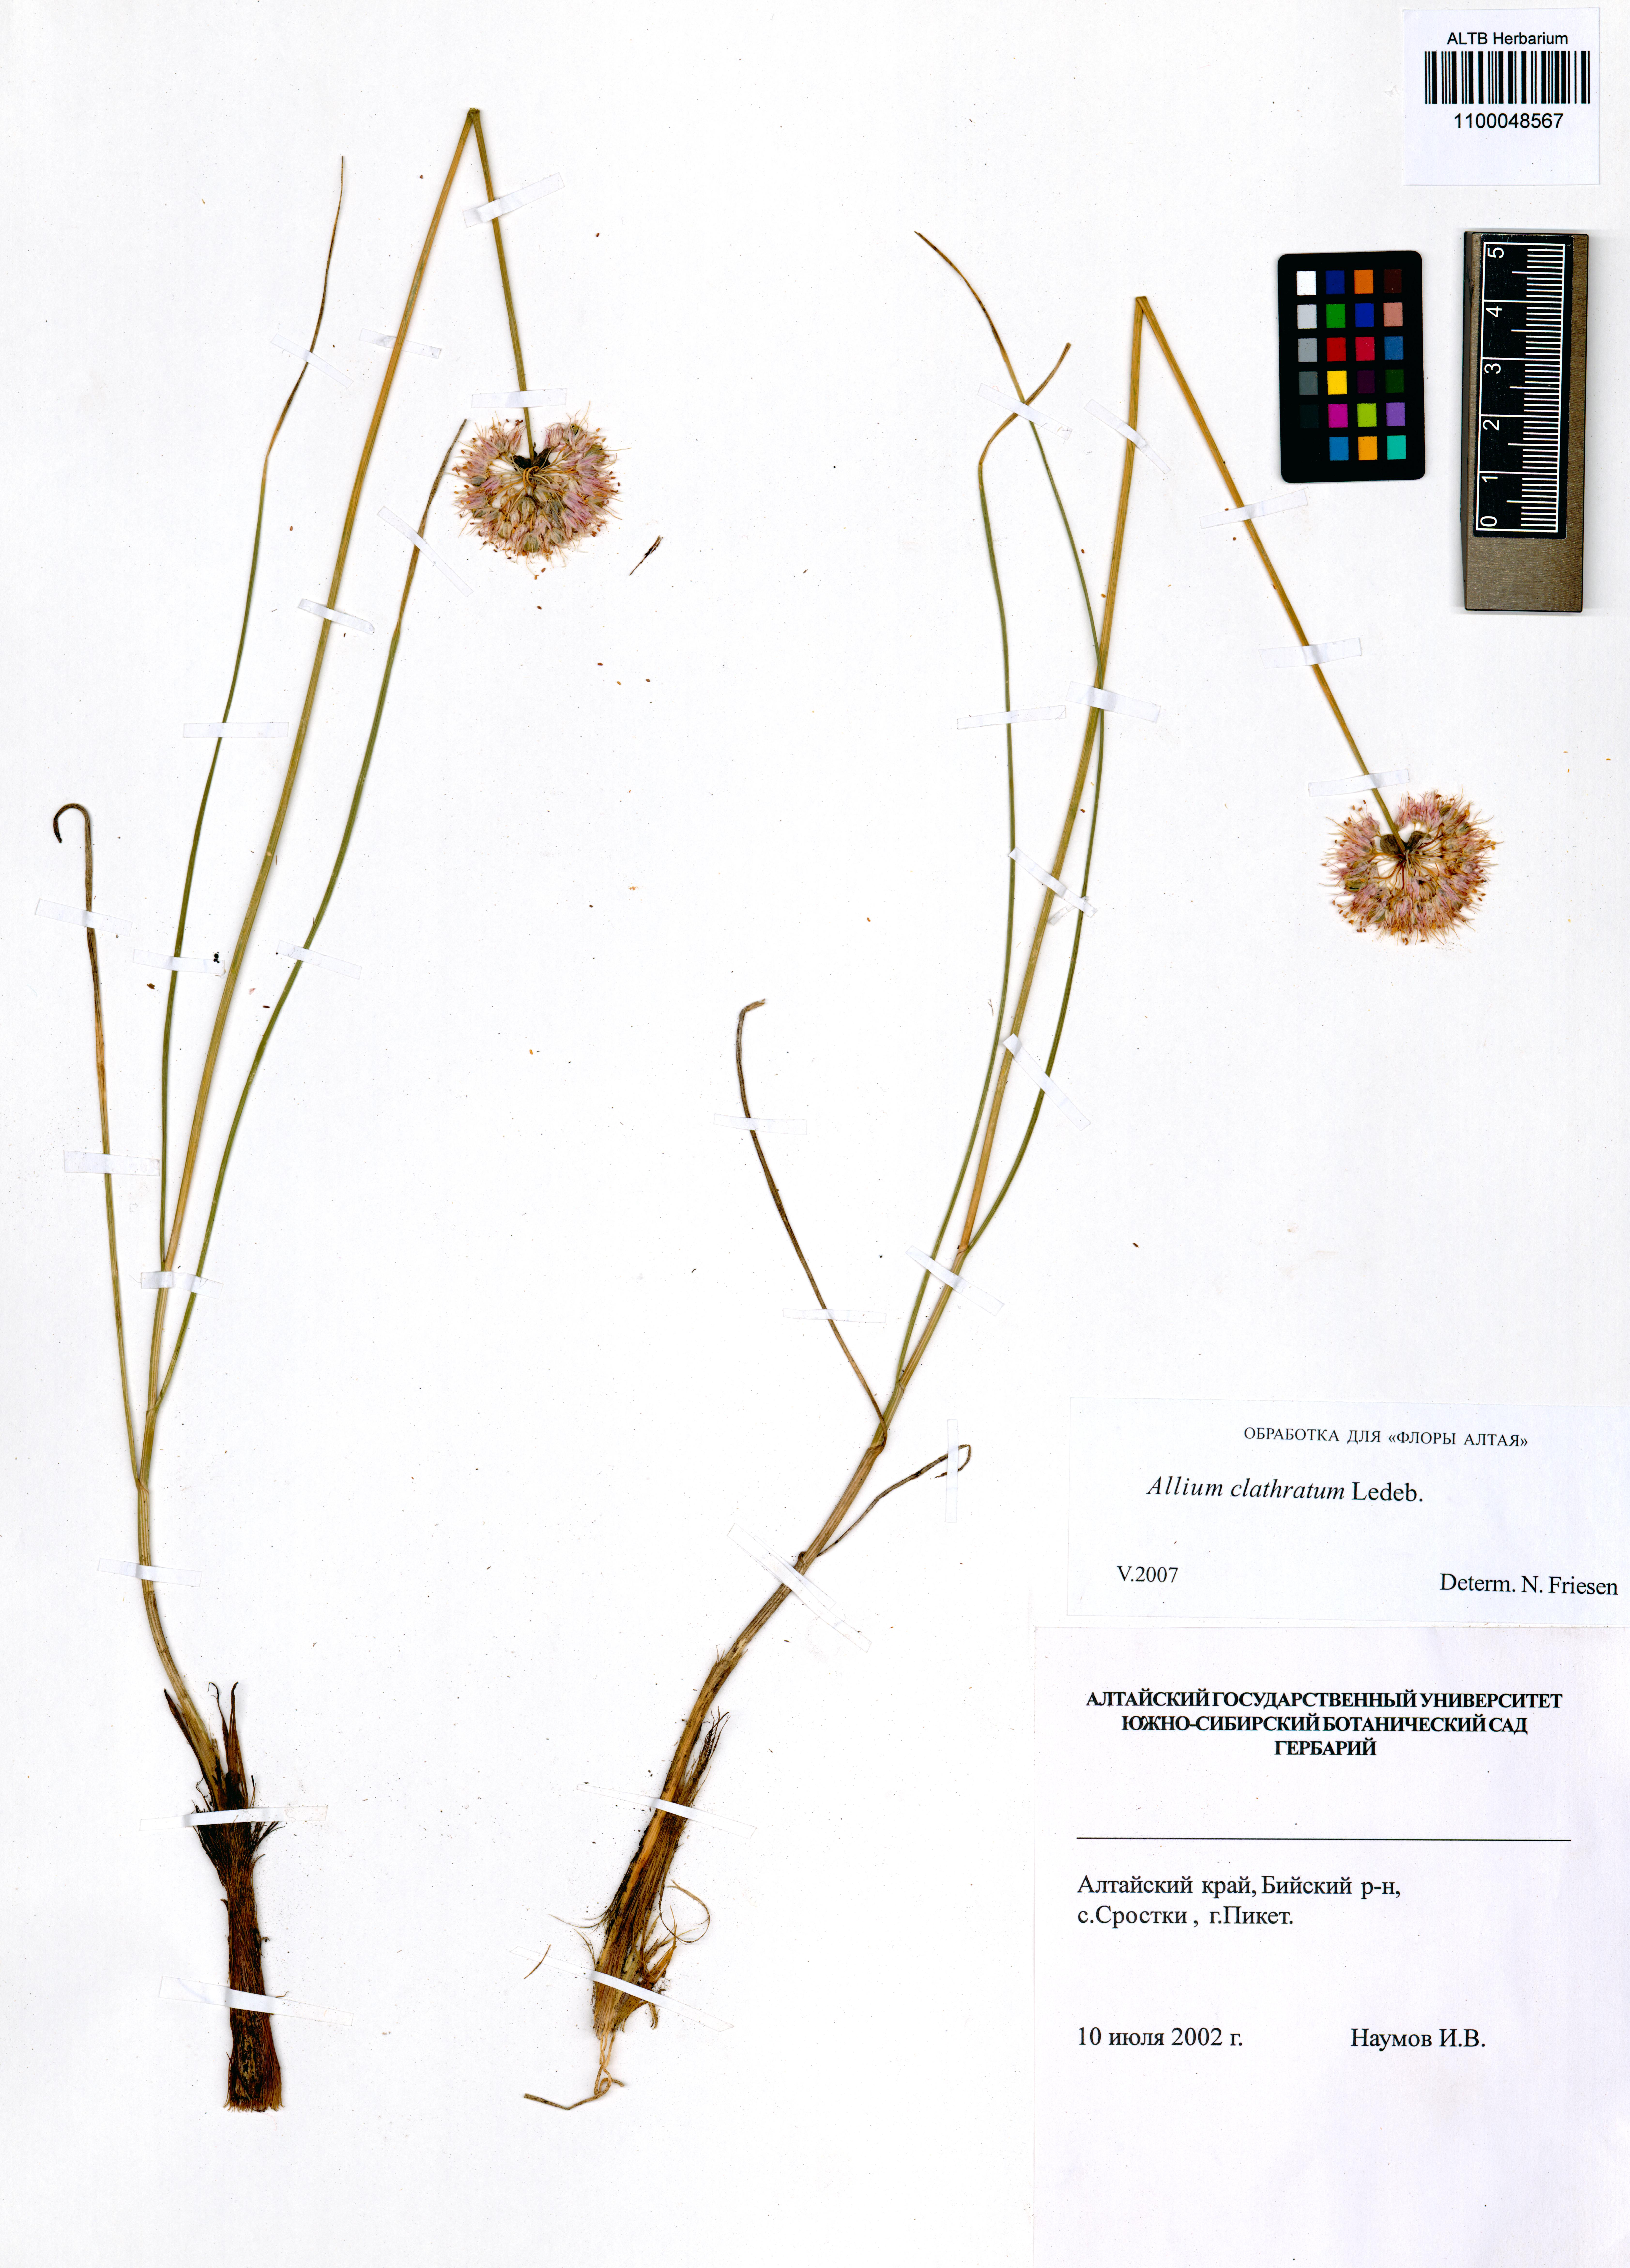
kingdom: Plantae
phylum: Tracheophyta
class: Liliopsida
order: Asparagales
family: Amaryllidaceae
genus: Allium
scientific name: Allium clathratum
